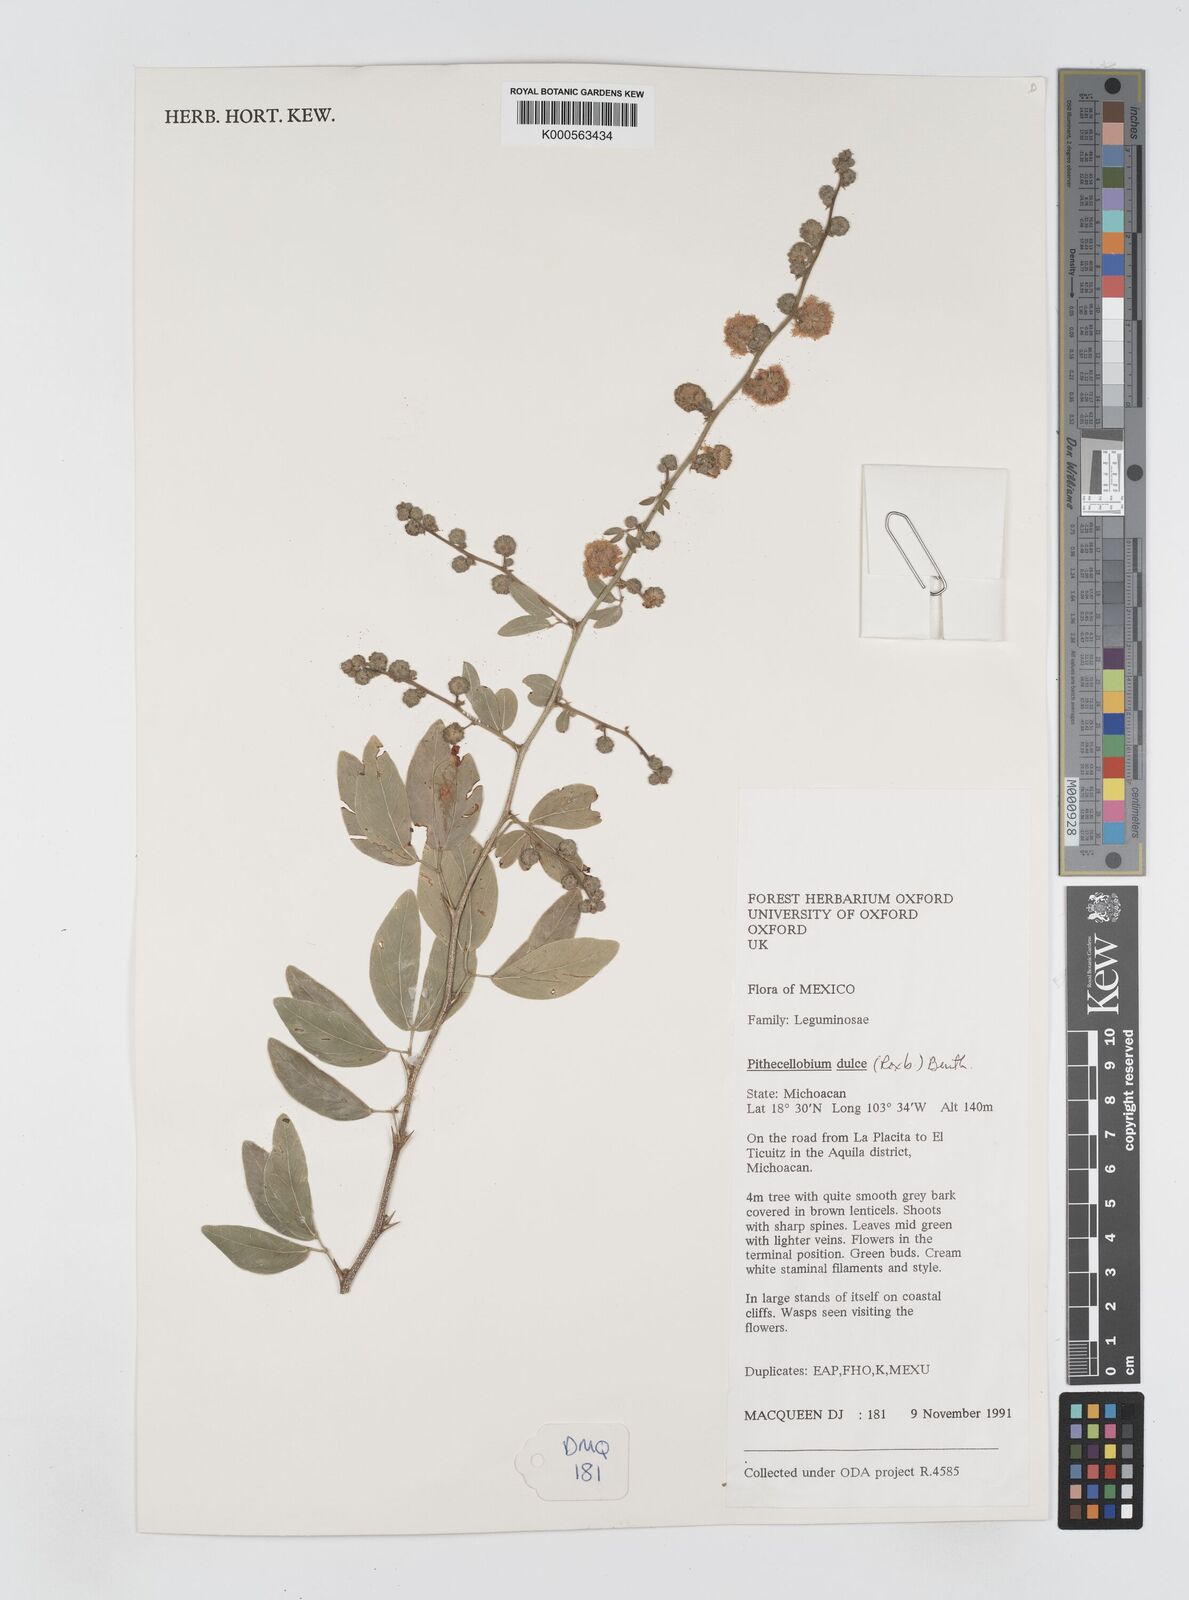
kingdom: Plantae
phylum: Tracheophyta
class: Magnoliopsida
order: Fabales
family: Fabaceae
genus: Pithecellobium
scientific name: Pithecellobium dulce
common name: Monkeypod
